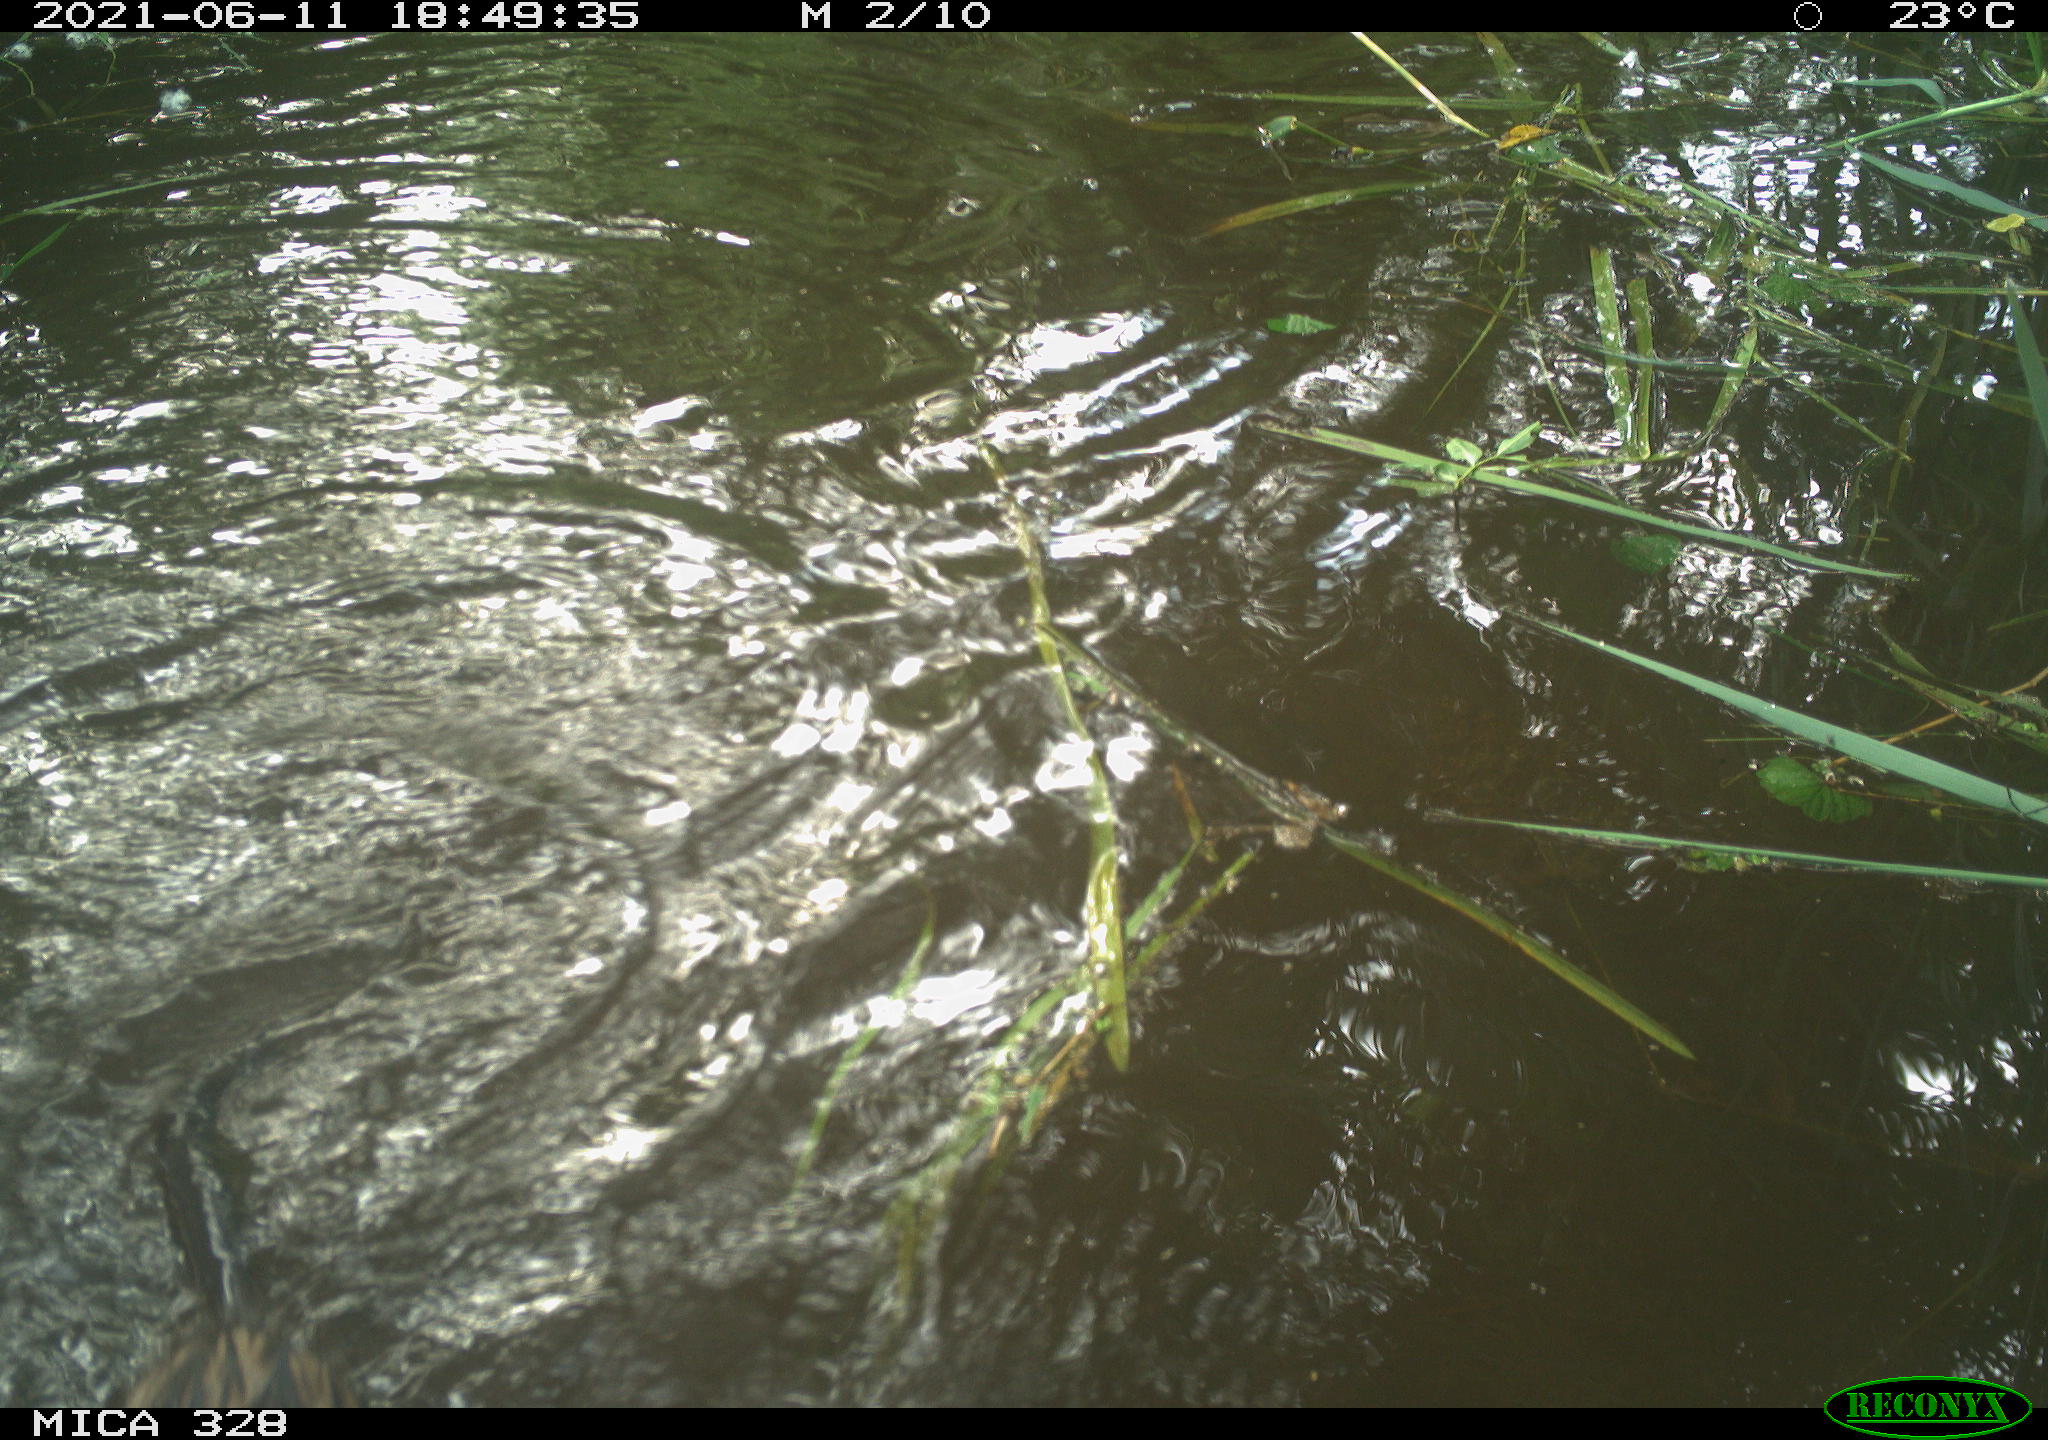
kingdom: Animalia
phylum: Chordata
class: Mammalia
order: Rodentia
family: Cricetidae
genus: Ondatra
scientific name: Ondatra zibethicus
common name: Muskrat
